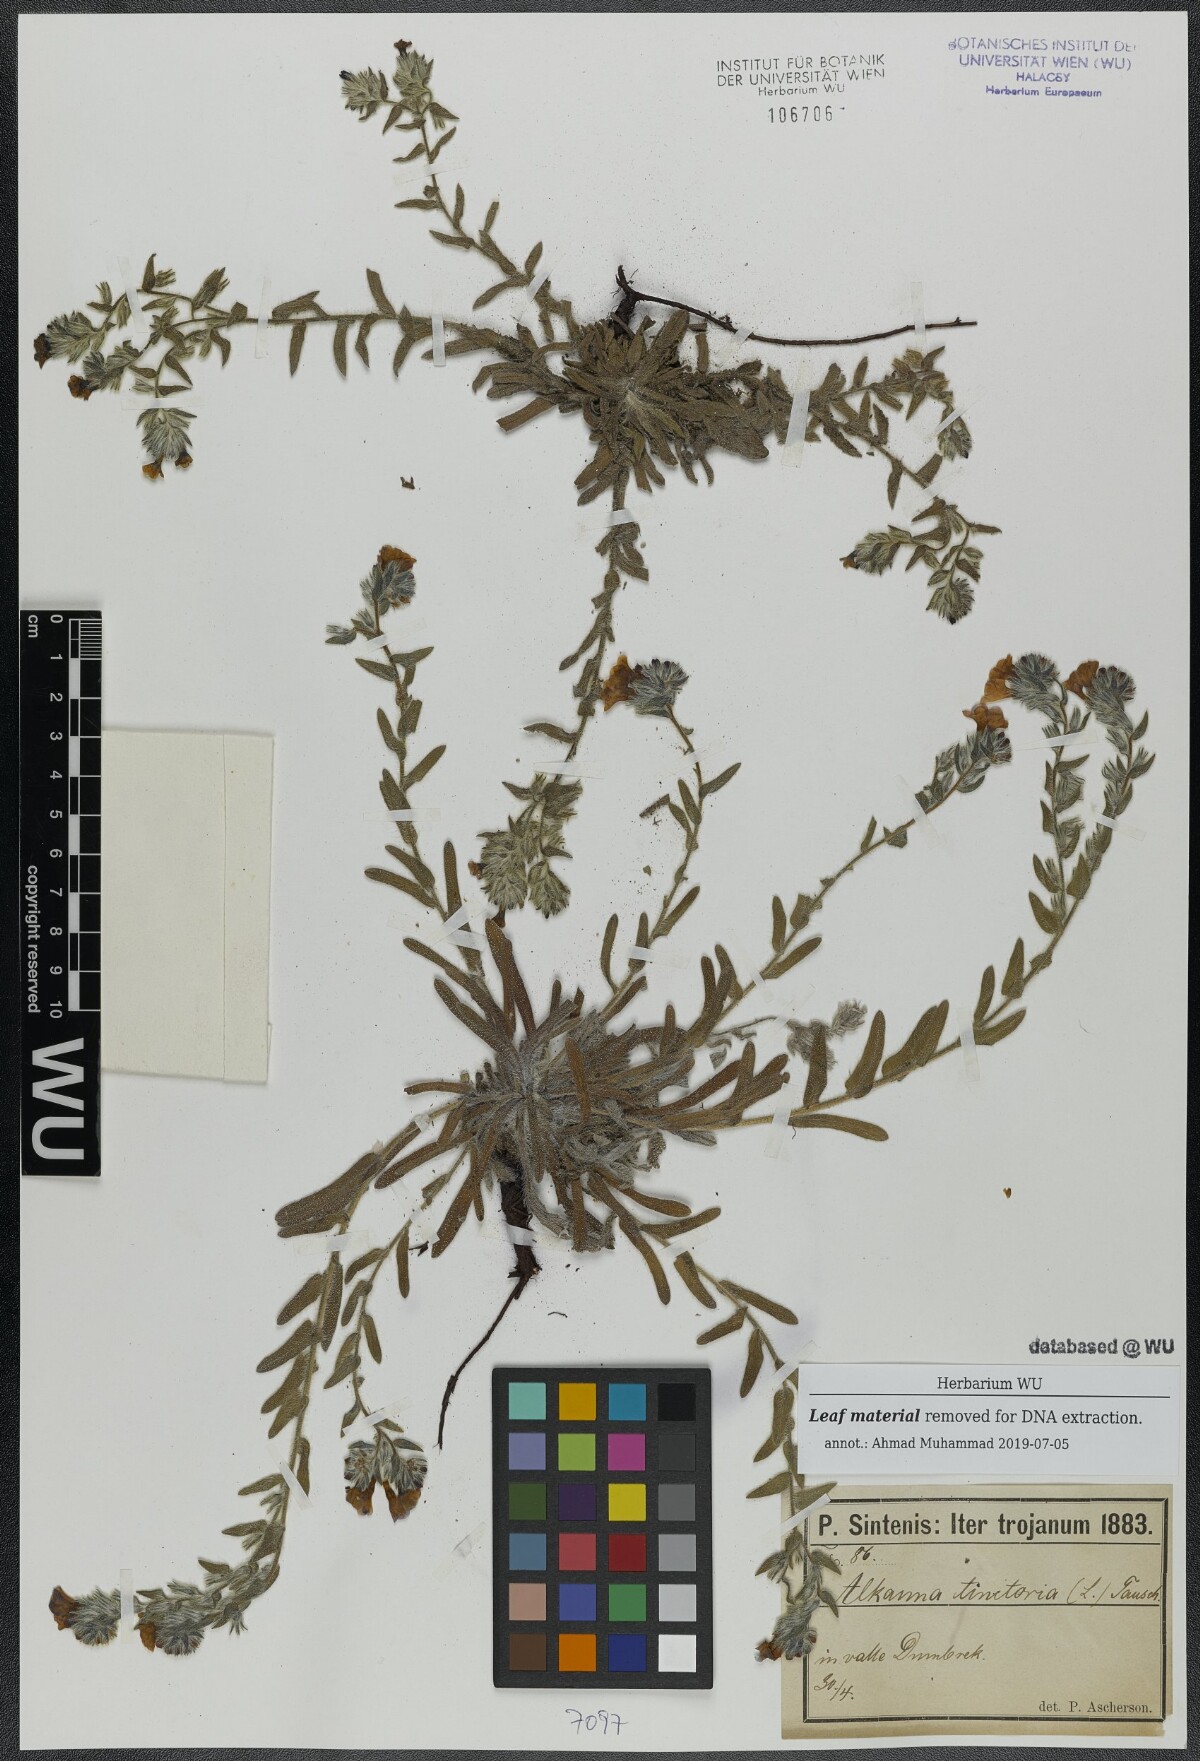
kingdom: Plantae
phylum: Tracheophyta
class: Magnoliopsida
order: Boraginales
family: Boraginaceae
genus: Alkanna
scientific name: Alkanna tinctoria
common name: Dyer's-alkanet
